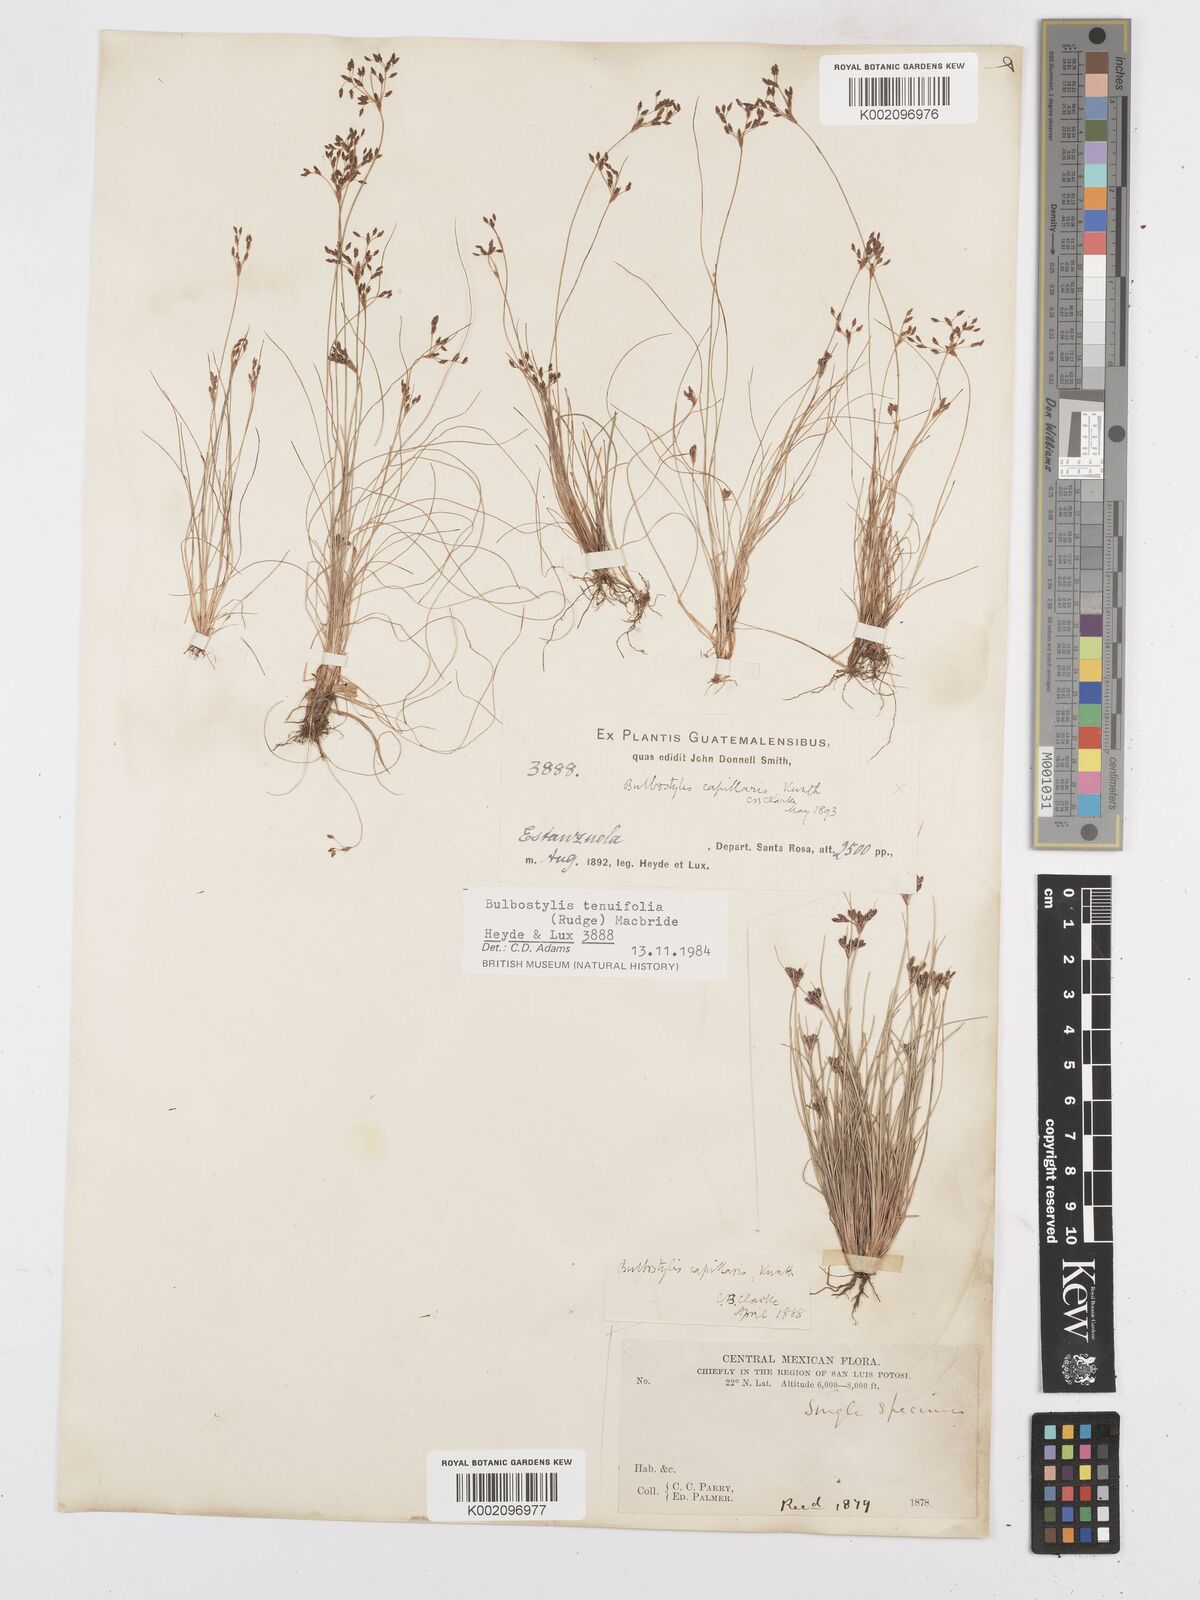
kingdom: Plantae
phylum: Tracheophyta
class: Liliopsida
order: Poales
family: Cyperaceae
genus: Bulbostylis
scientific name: Bulbostylis tenuifolia
